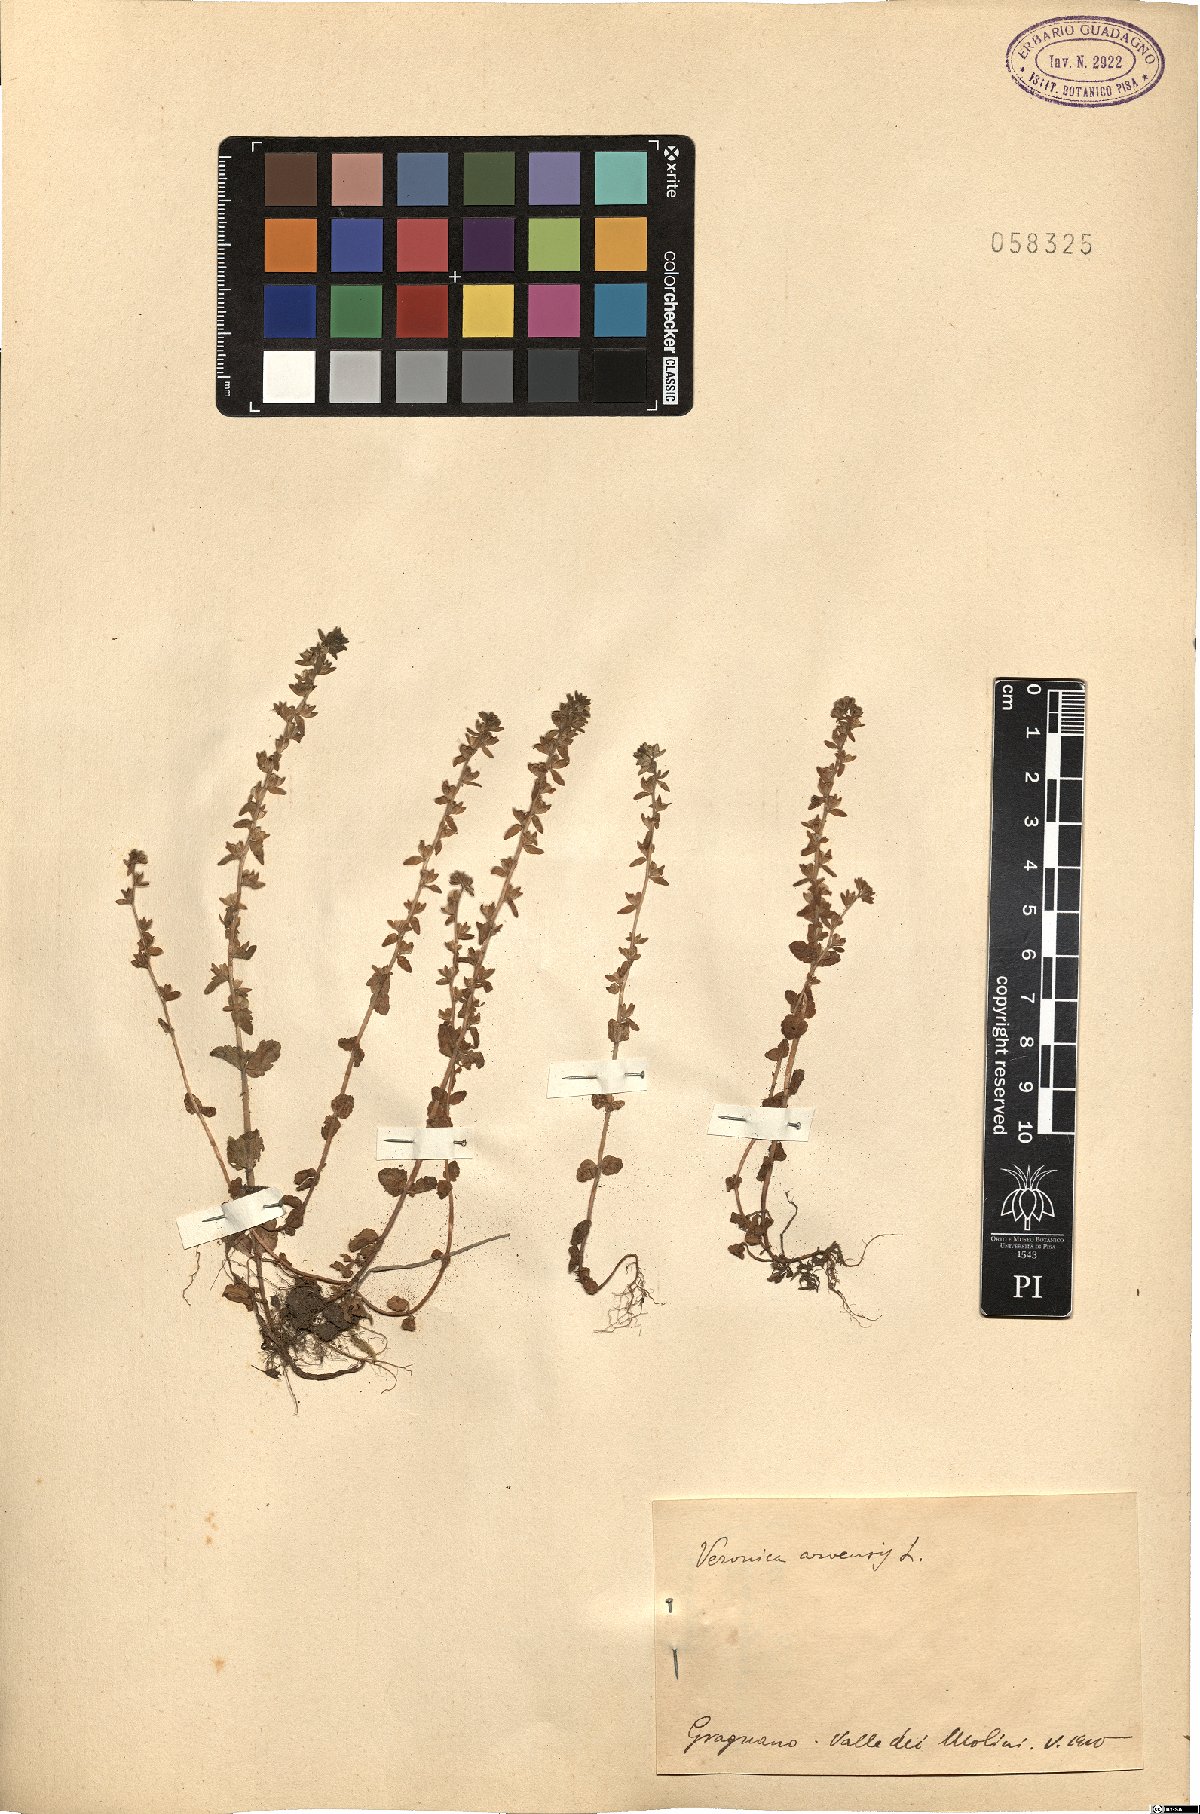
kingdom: Plantae
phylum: Tracheophyta
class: Magnoliopsida
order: Lamiales
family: Plantaginaceae
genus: Veronica
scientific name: Veronica arvensis
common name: Corn speedwell
